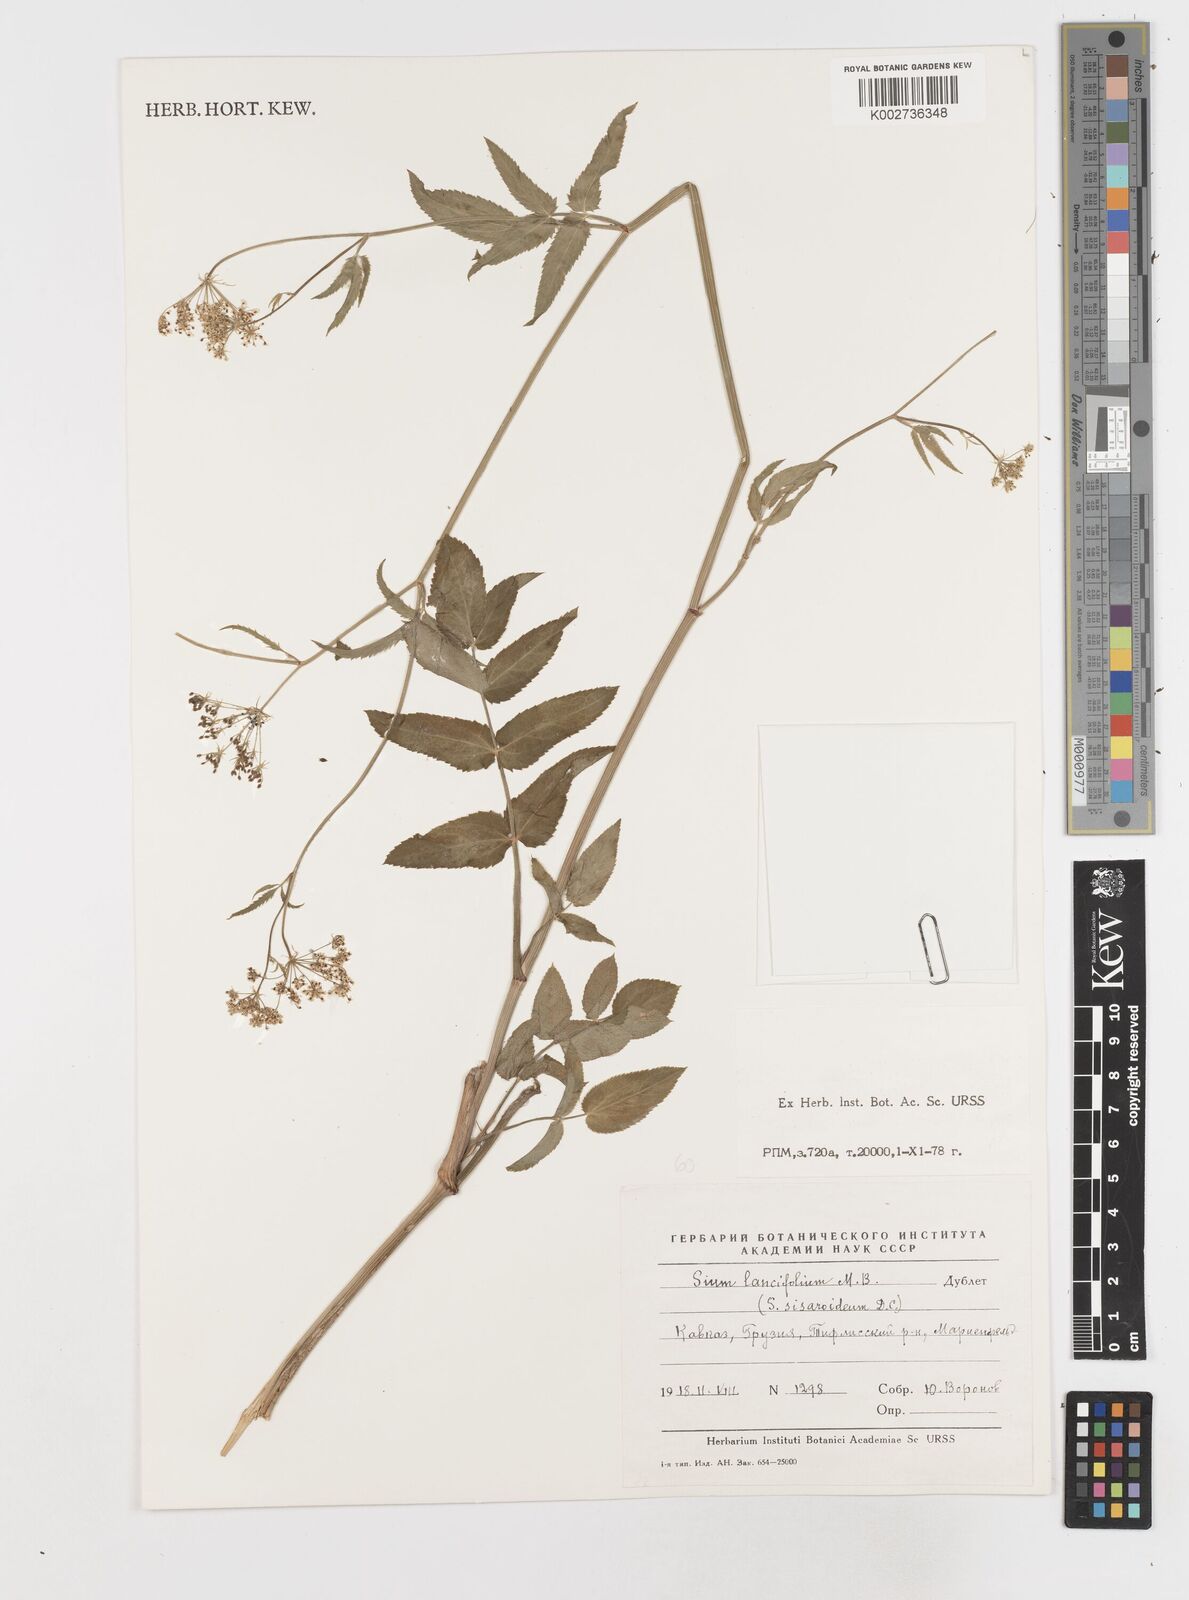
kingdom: Plantae
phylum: Tracheophyta
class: Magnoliopsida
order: Apiales
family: Apiaceae
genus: Sium
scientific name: Sium sisarum
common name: Skirret
